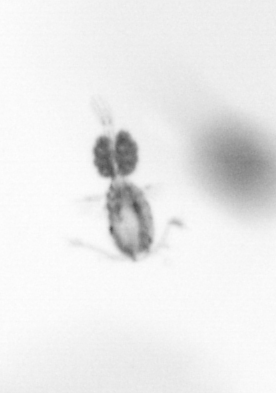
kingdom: Animalia
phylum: Arthropoda
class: Copepoda
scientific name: Copepoda
